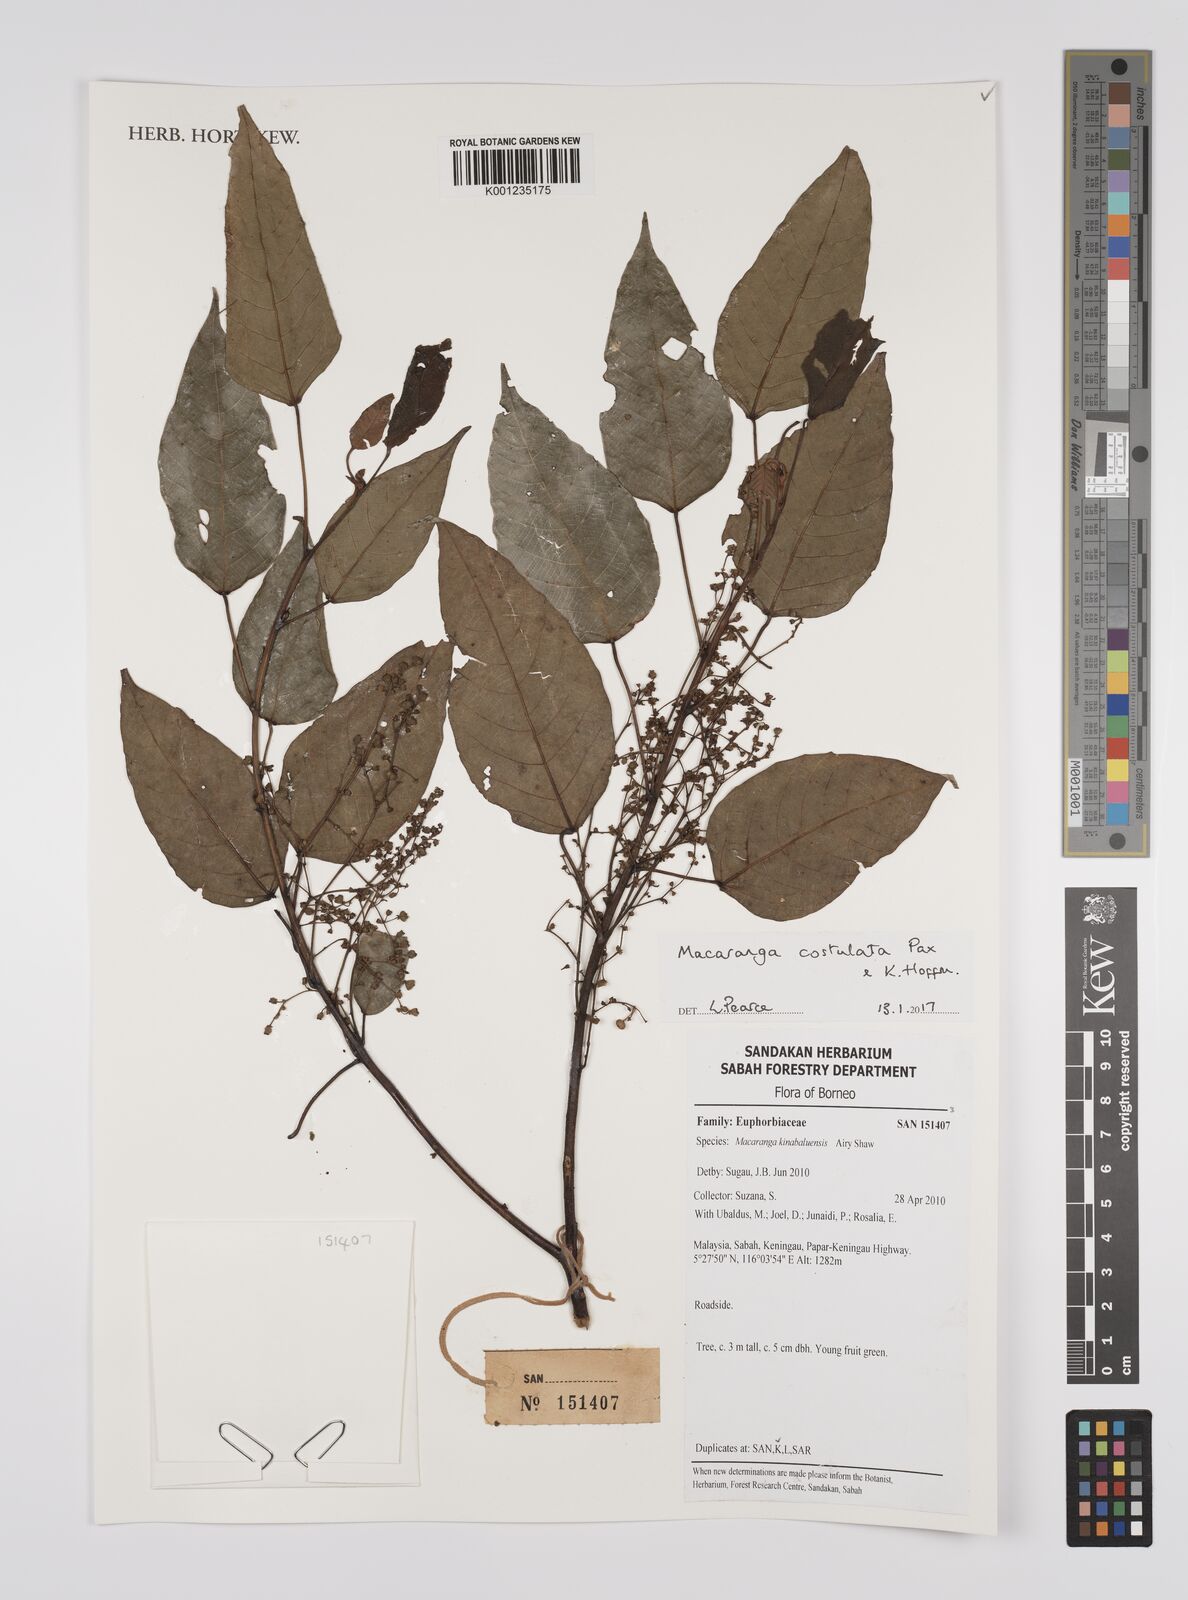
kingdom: Plantae
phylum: Tracheophyta
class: Magnoliopsida
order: Malpighiales
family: Euphorbiaceae
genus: Macaranga
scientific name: Macaranga costulata
